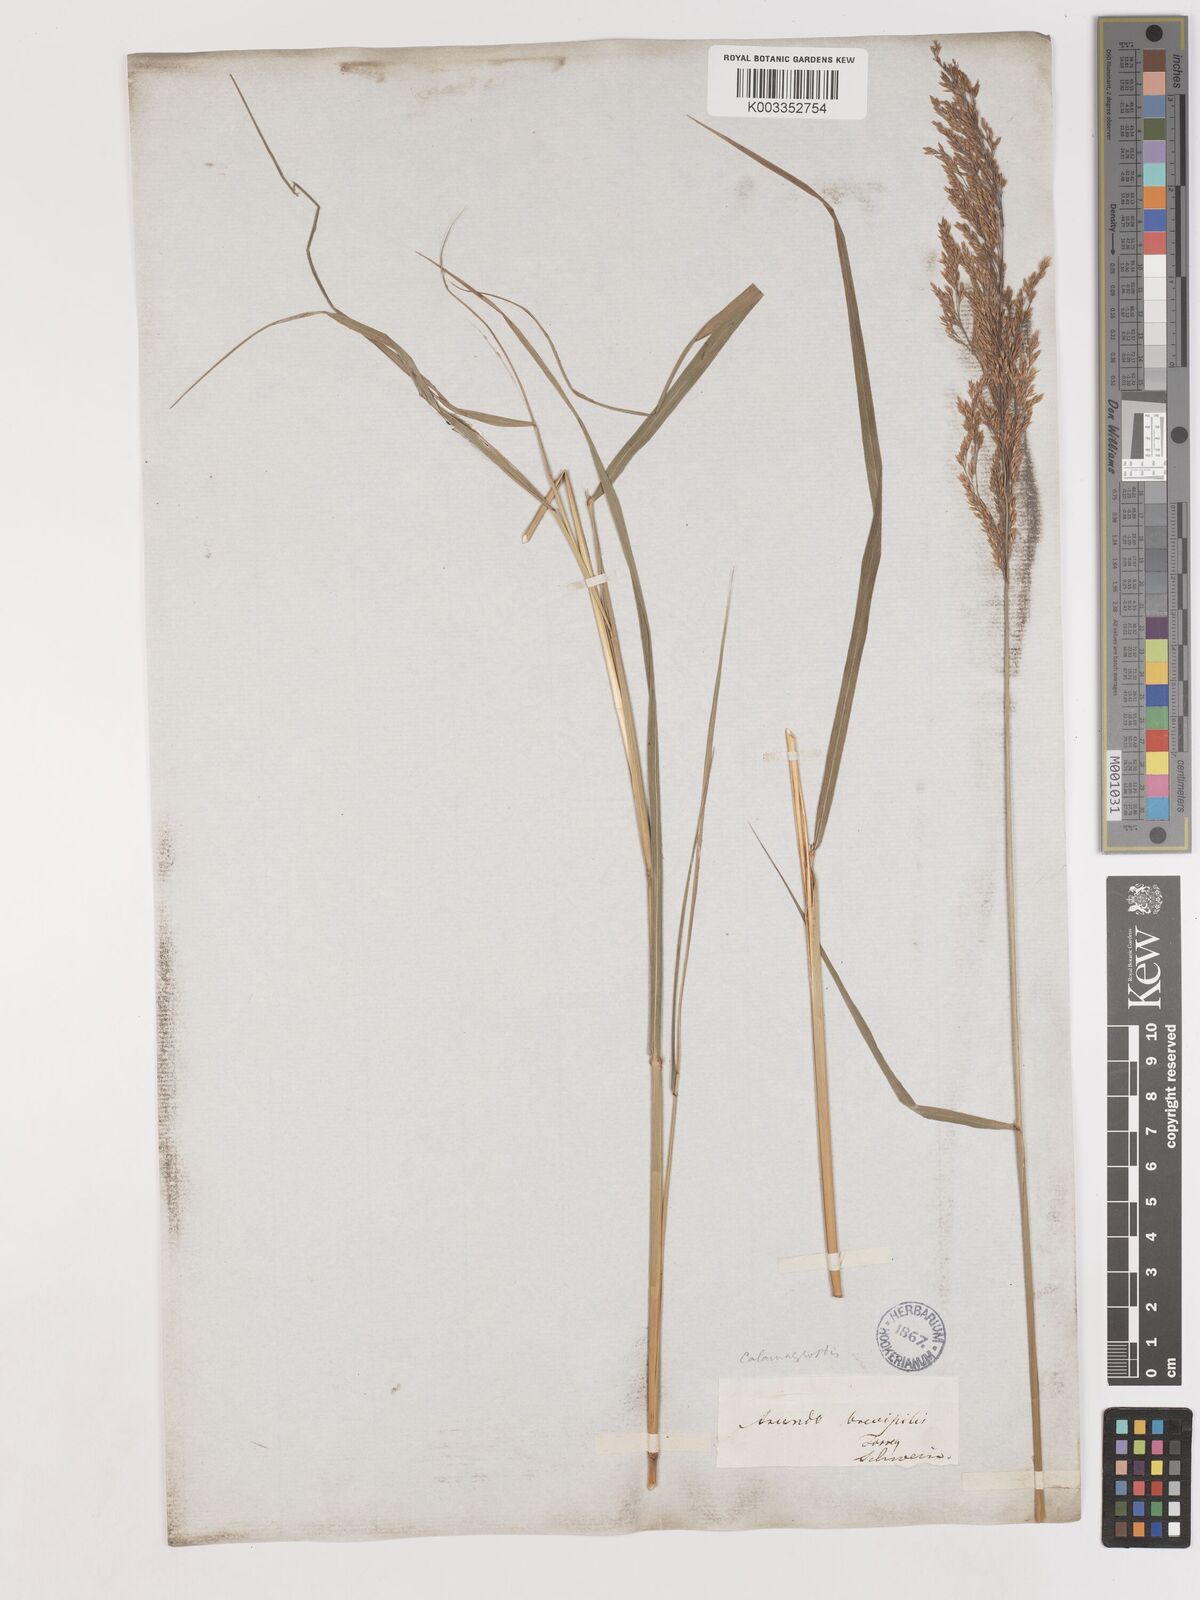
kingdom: Plantae
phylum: Tracheophyta
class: Liliopsida
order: Poales
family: Poaceae
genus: Calamagrostis
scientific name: Calamagrostis canadensis
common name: Canada bluejoint
